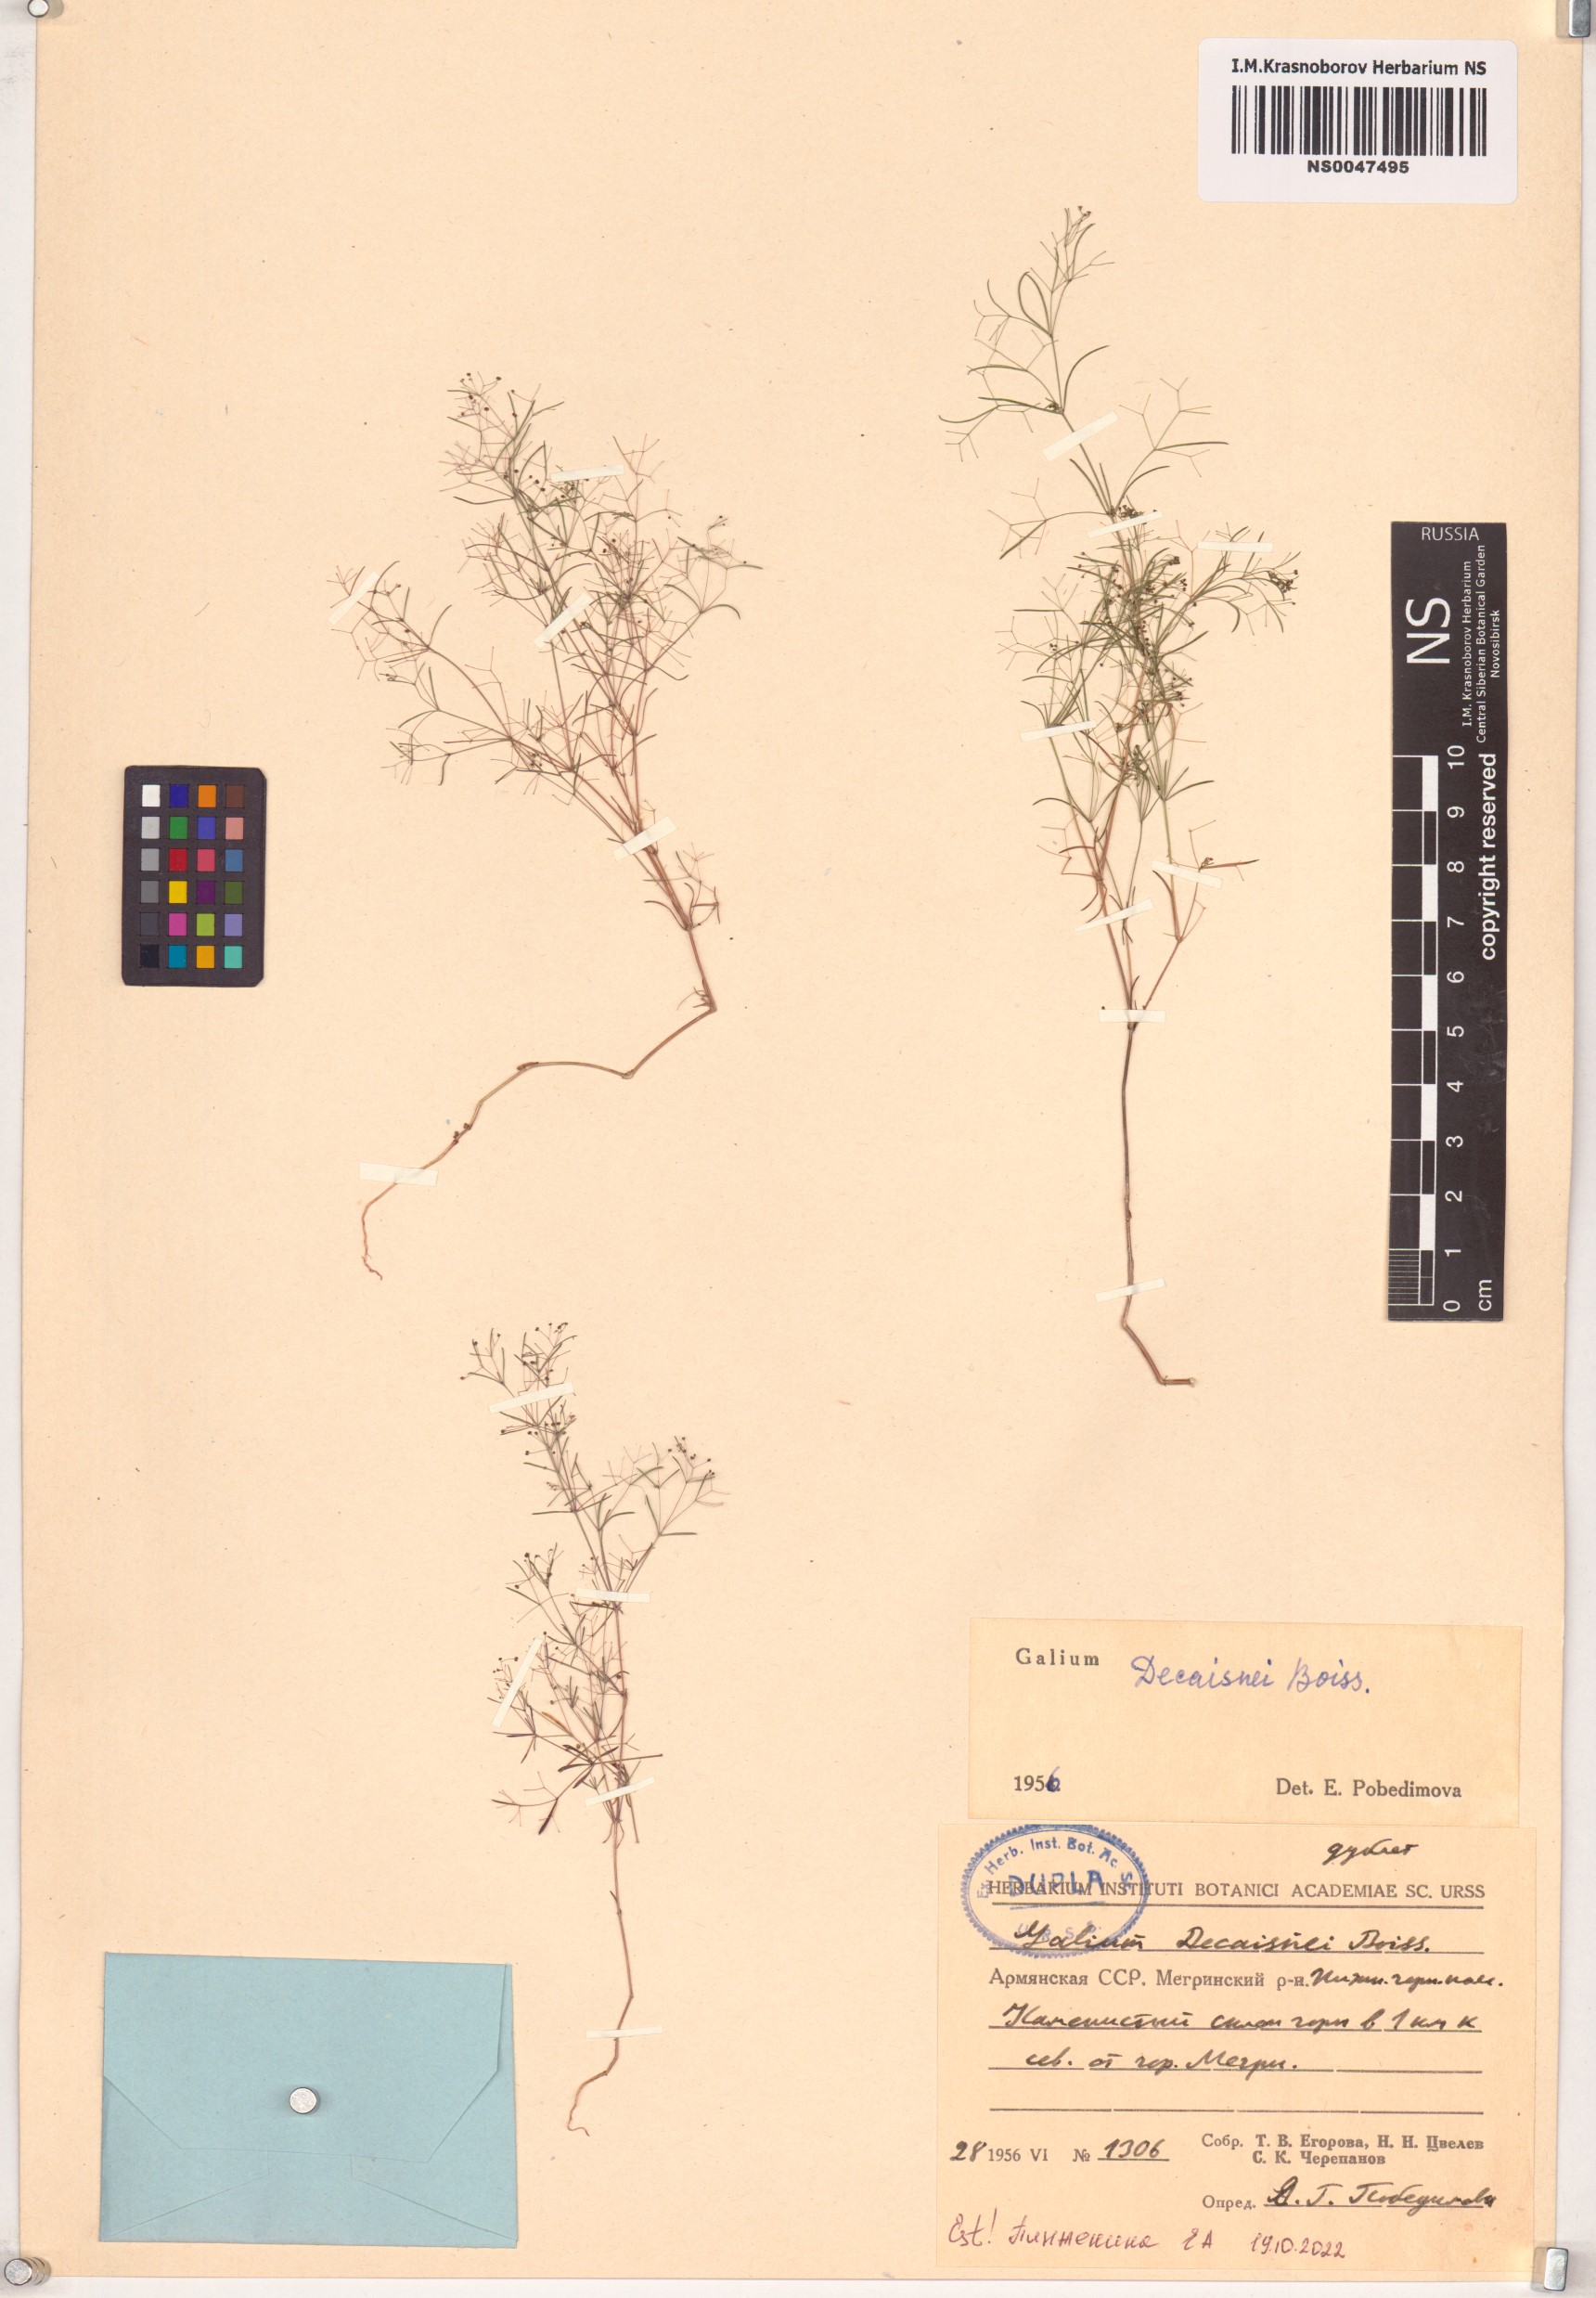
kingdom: Plantae
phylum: Tracheophyta
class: Magnoliopsida
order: Gentianales
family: Rubiaceae
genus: Galium
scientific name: Galium setaceum
